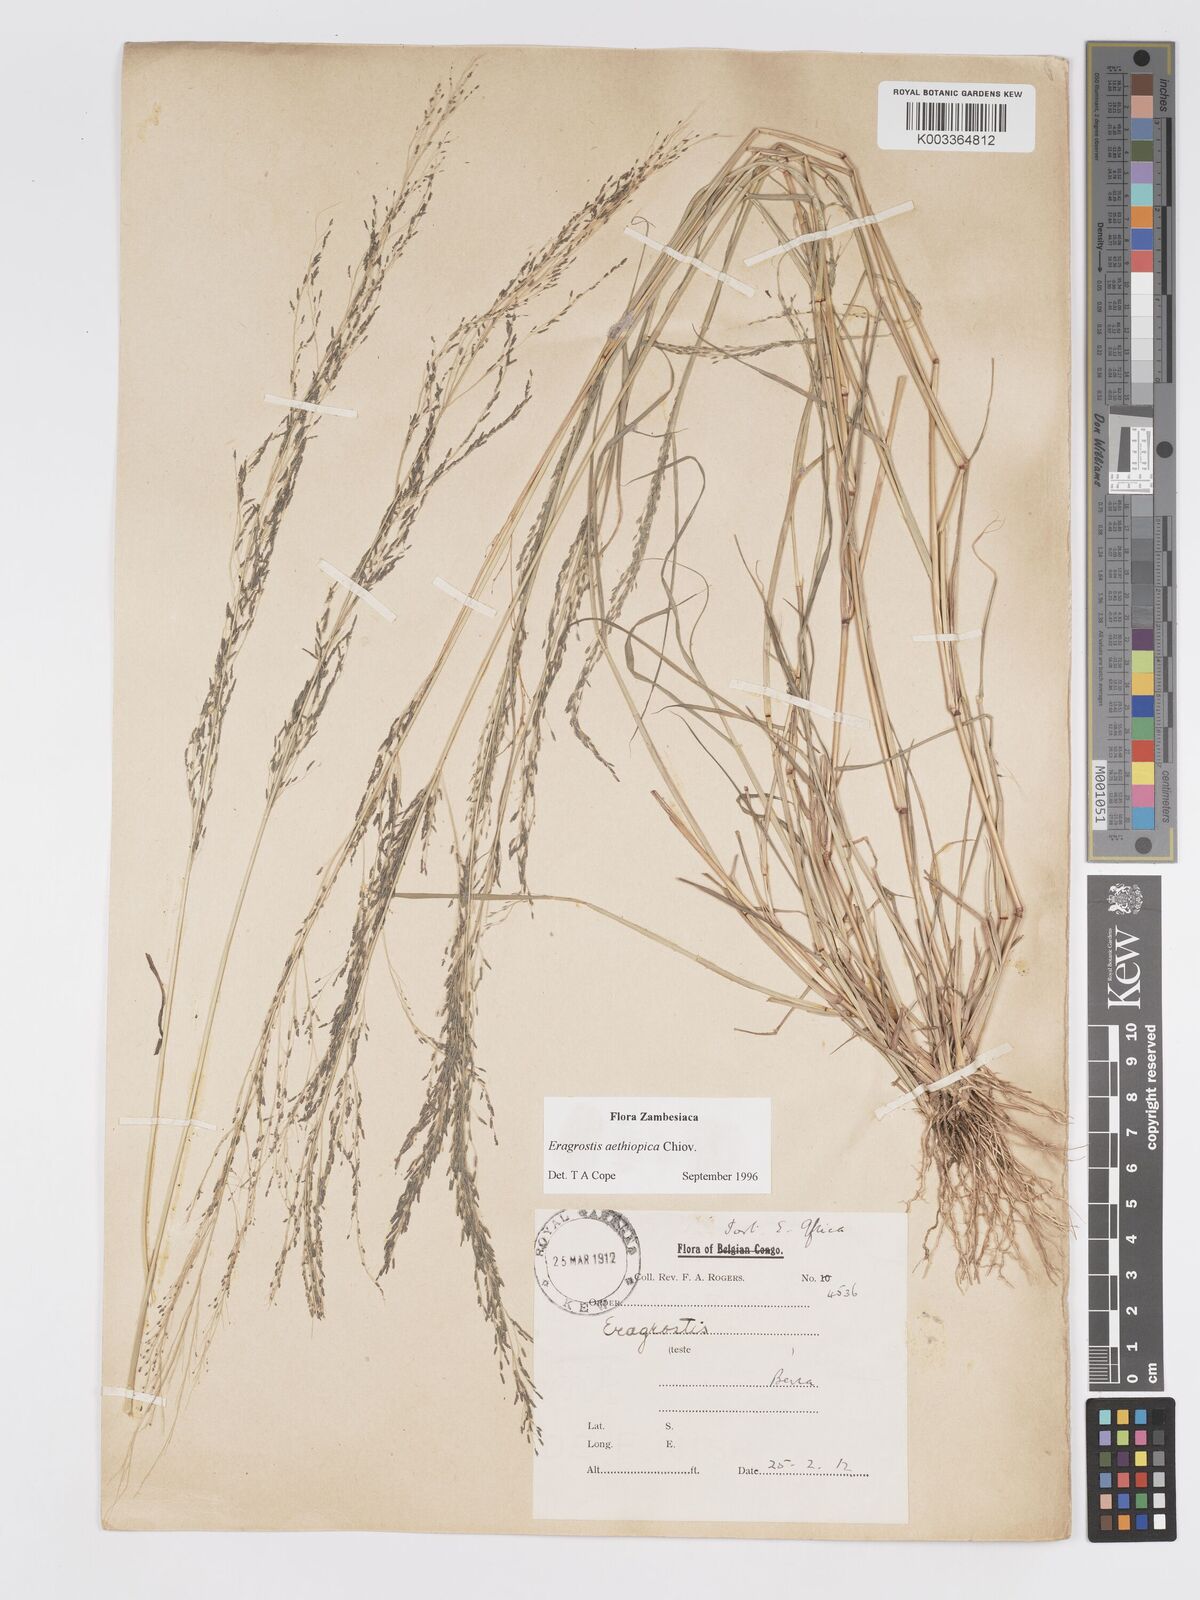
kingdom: Plantae
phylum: Tracheophyta
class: Liliopsida
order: Poales
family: Poaceae
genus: Eragrostis
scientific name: Eragrostis aethiopica
